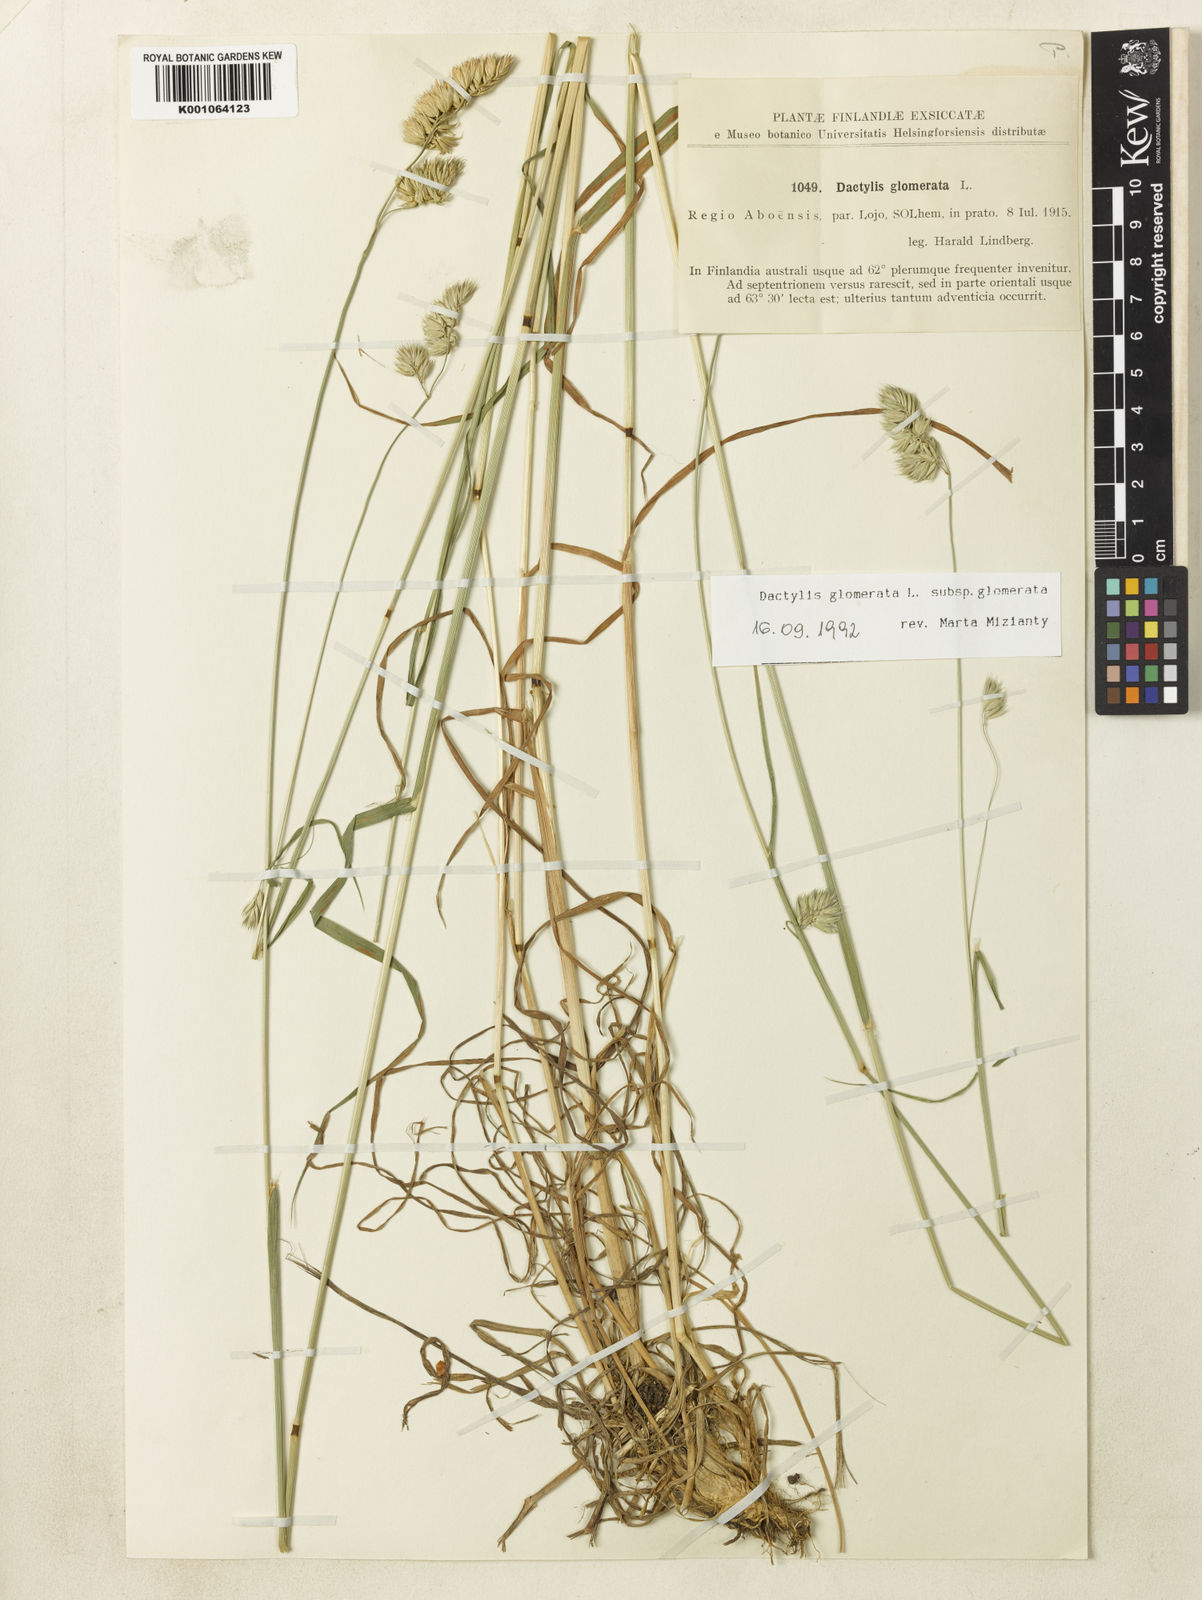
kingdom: Plantae
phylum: Tracheophyta
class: Liliopsida
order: Poales
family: Poaceae
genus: Dactylis
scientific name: Dactylis glomerata
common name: Orchardgrass
